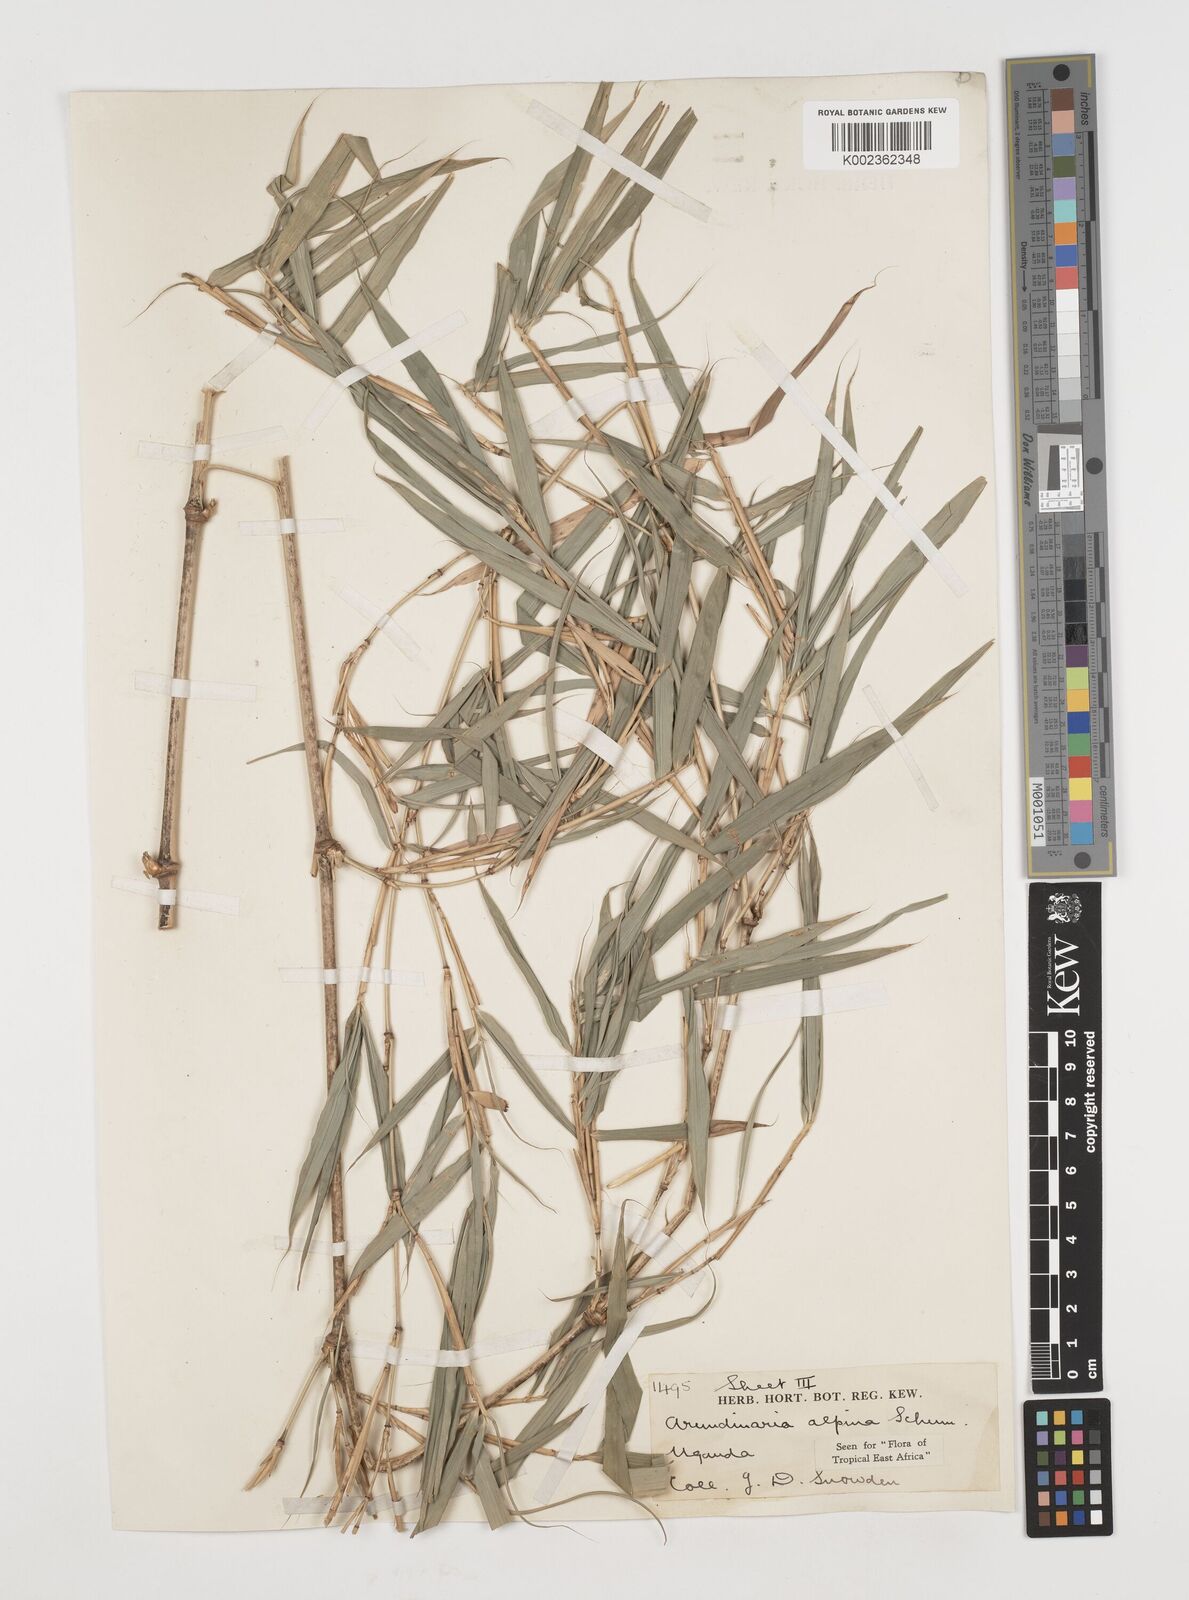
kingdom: Plantae
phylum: Tracheophyta
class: Liliopsida
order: Poales
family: Poaceae
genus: Oldeania
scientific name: Oldeania alpina
